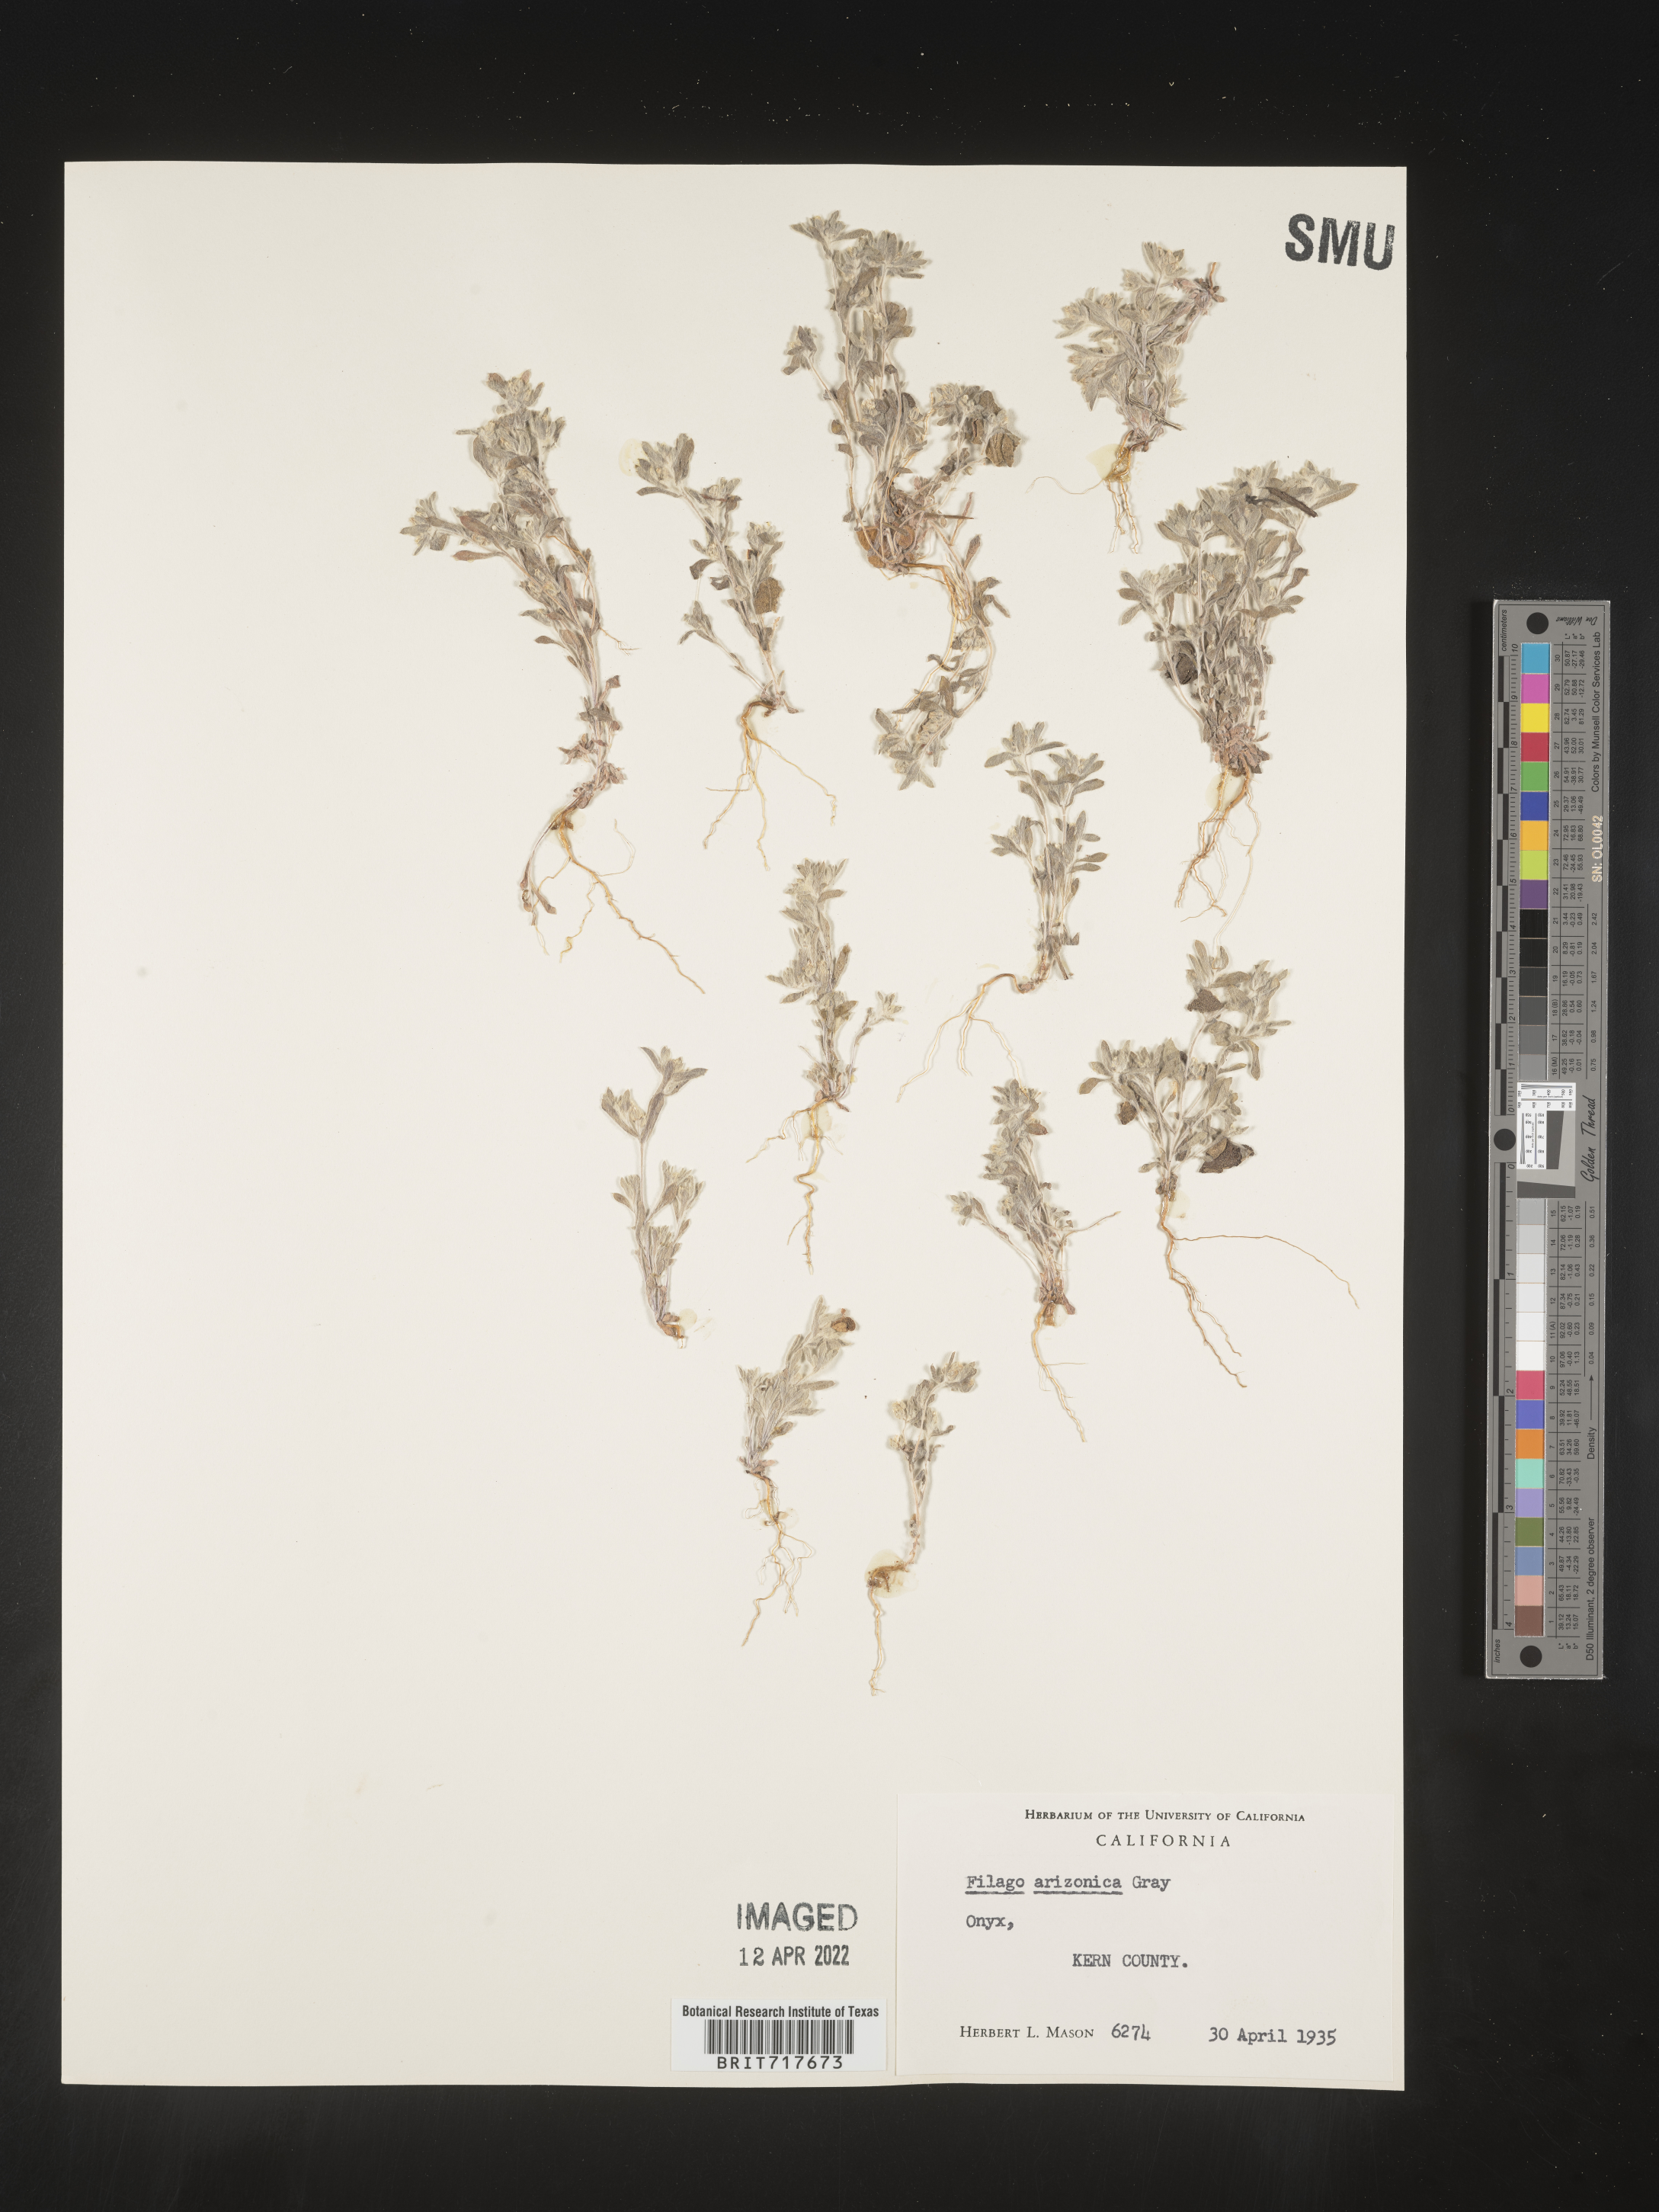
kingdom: Plantae
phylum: Tracheophyta
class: Magnoliopsida
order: Asterales
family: Asteraceae
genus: Logfia
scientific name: Logfia arizonica
